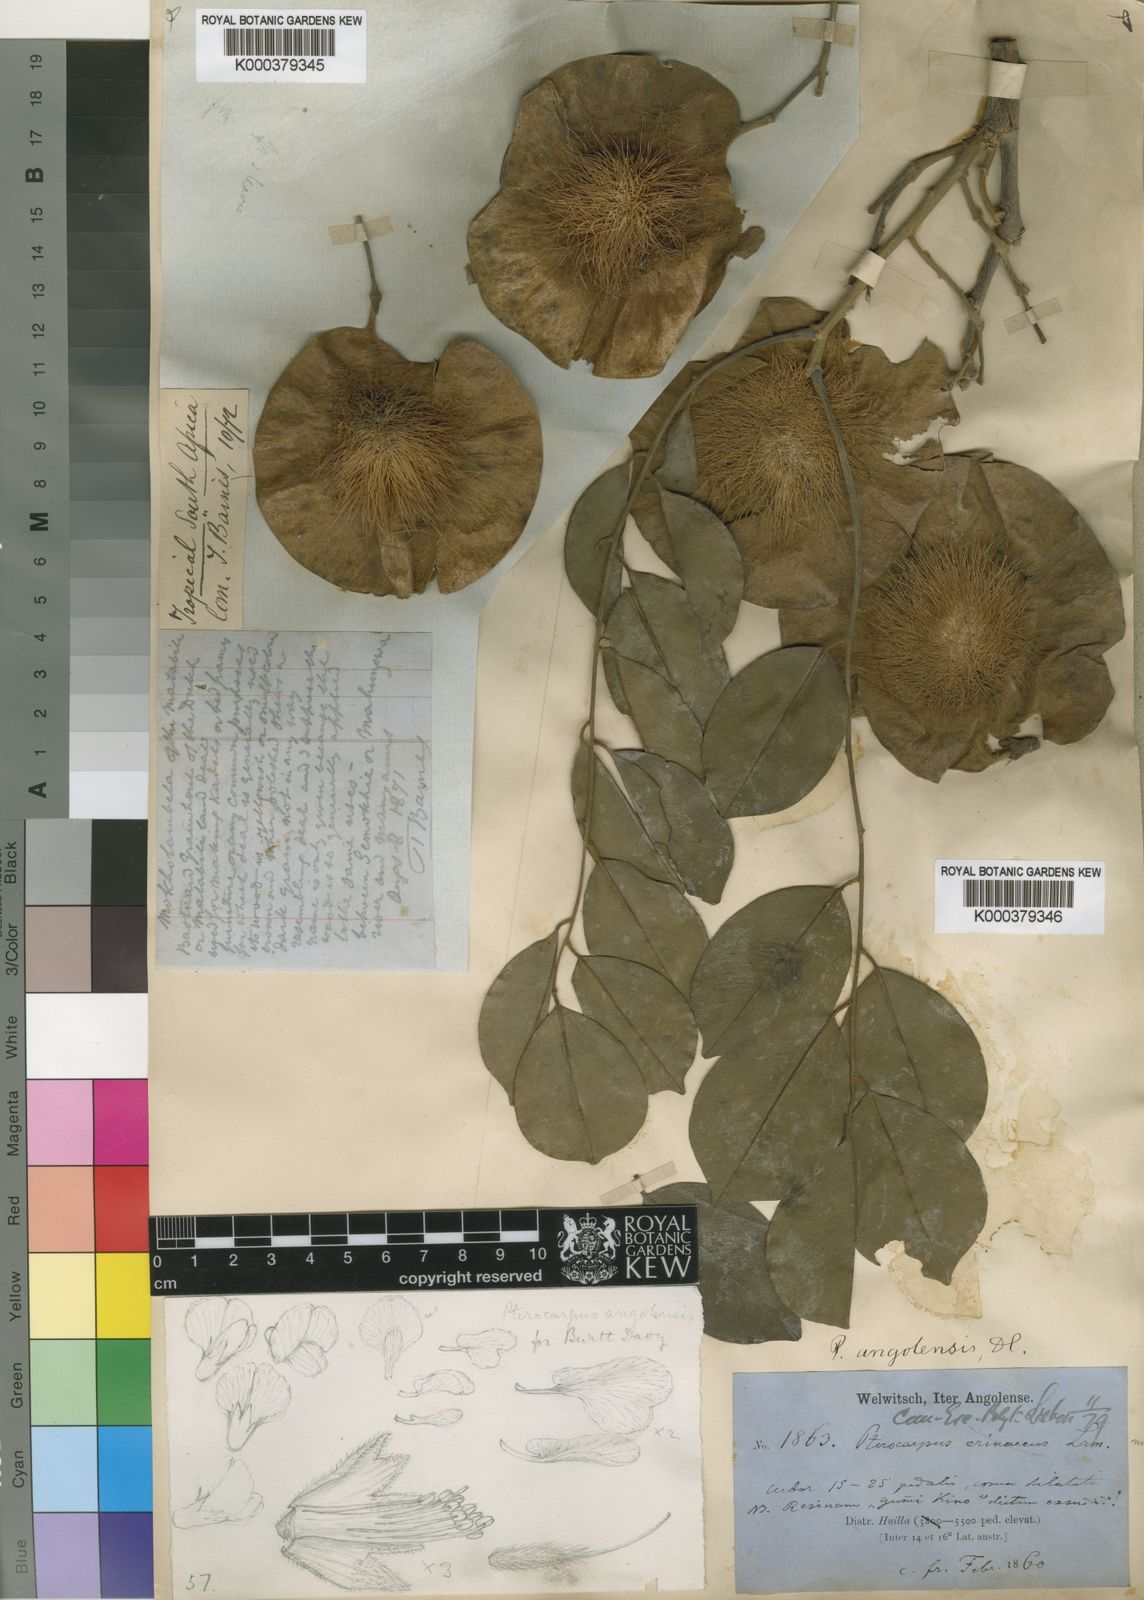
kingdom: Plantae
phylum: Tracheophyta
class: Magnoliopsida
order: Fabales
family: Fabaceae
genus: Pterocarpus
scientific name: Pterocarpus angolensis
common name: Bloodwood tree
